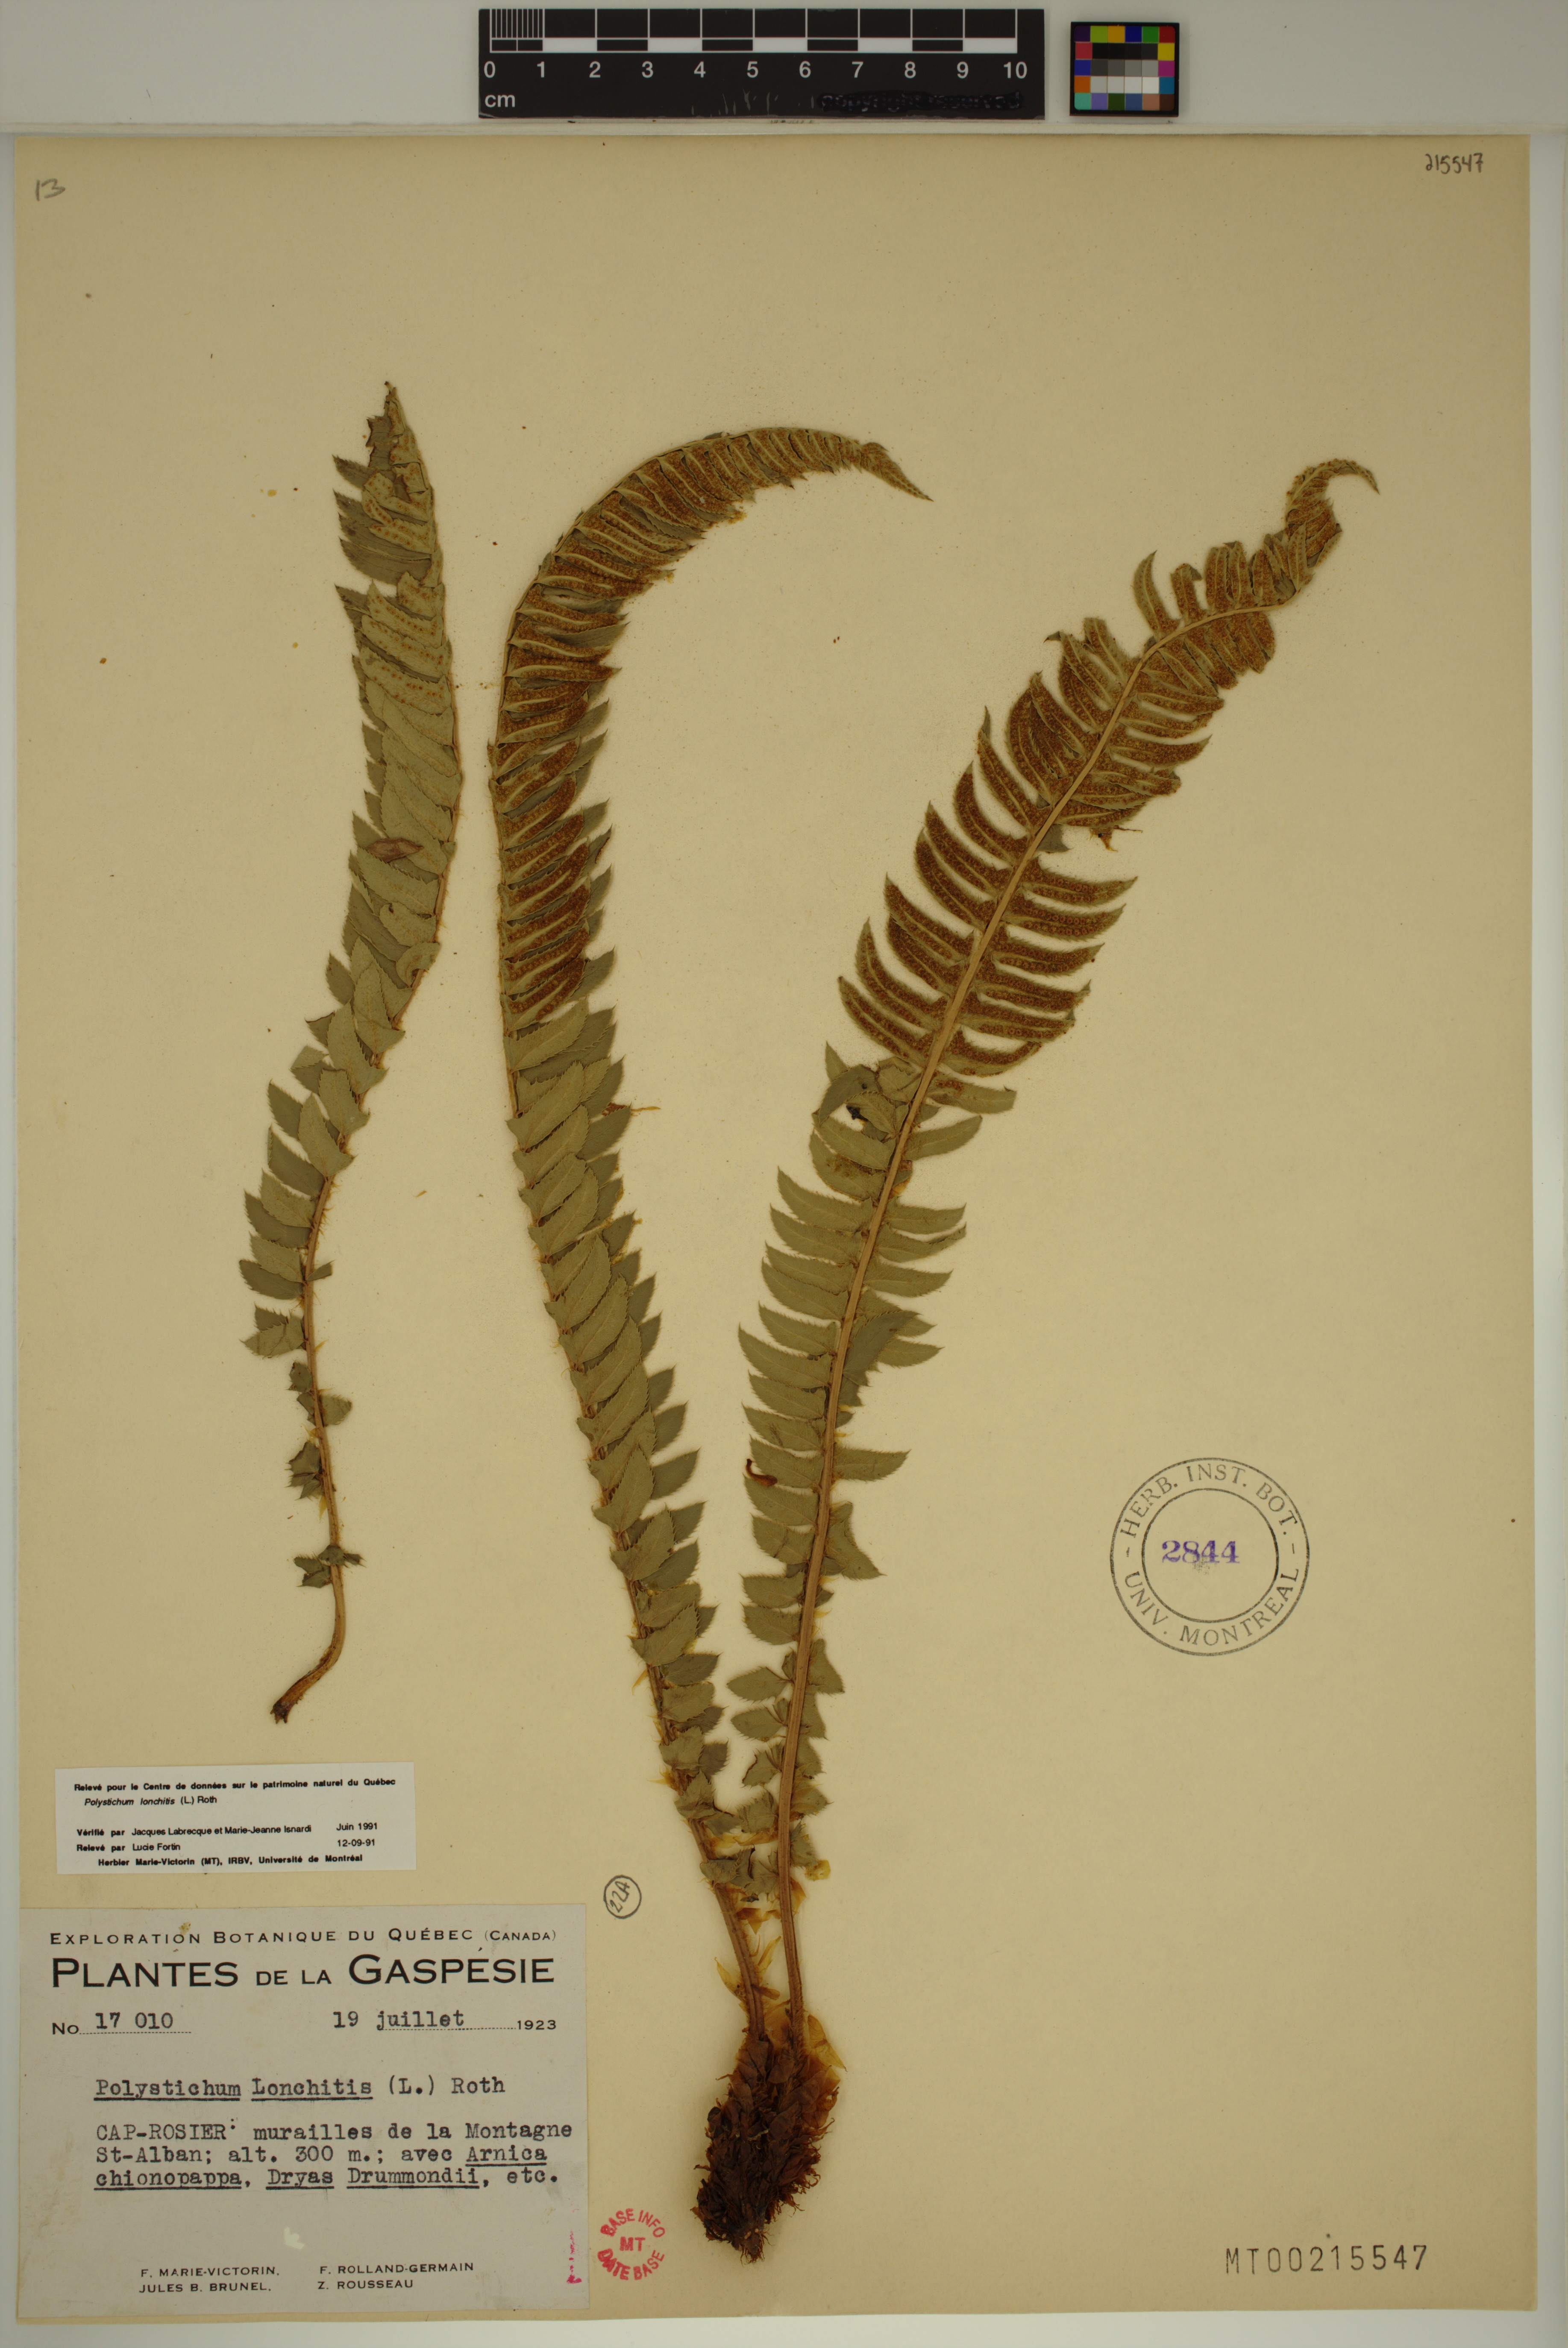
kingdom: Plantae
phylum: Tracheophyta
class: Polypodiopsida
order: Polypodiales
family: Dryopteridaceae
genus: Polystichum
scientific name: Polystichum lonchitis
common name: Holly fern
